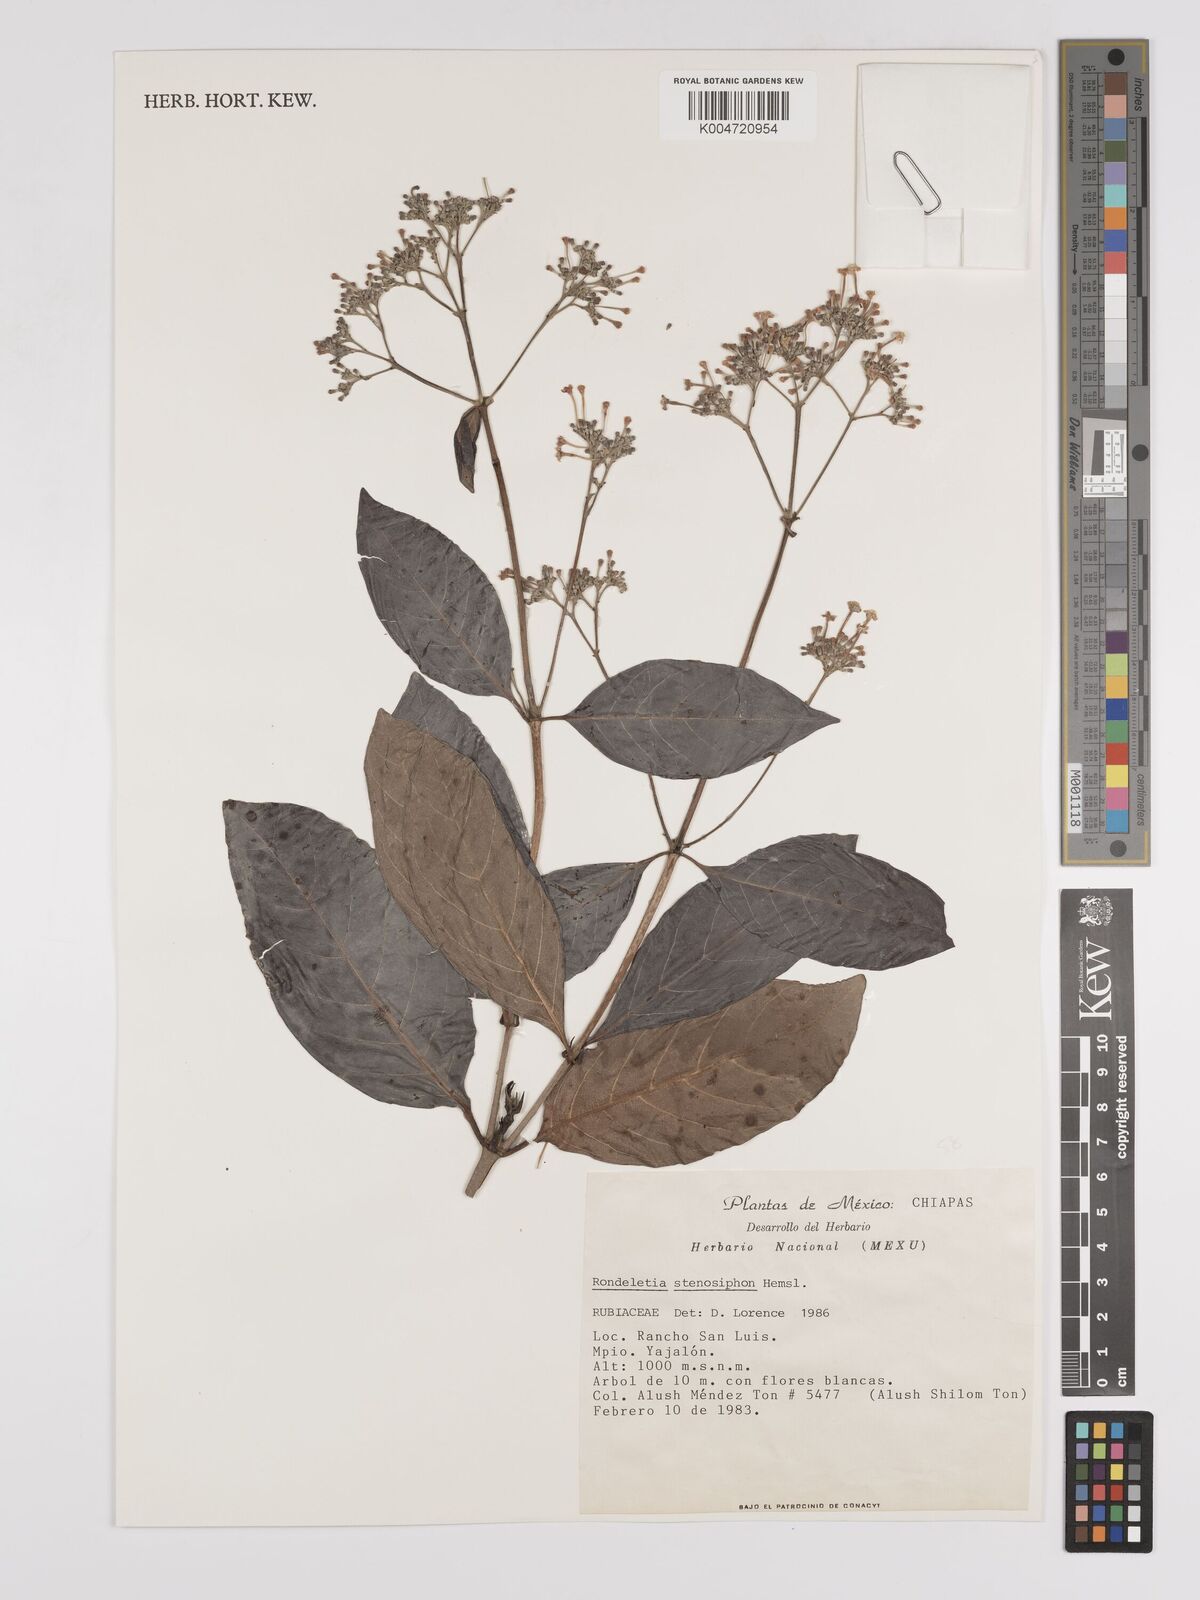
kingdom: Plantae
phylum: Tracheophyta
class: Magnoliopsida
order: Gentianales
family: Rubiaceae
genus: Rogiera
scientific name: Rogiera stenosiphon
